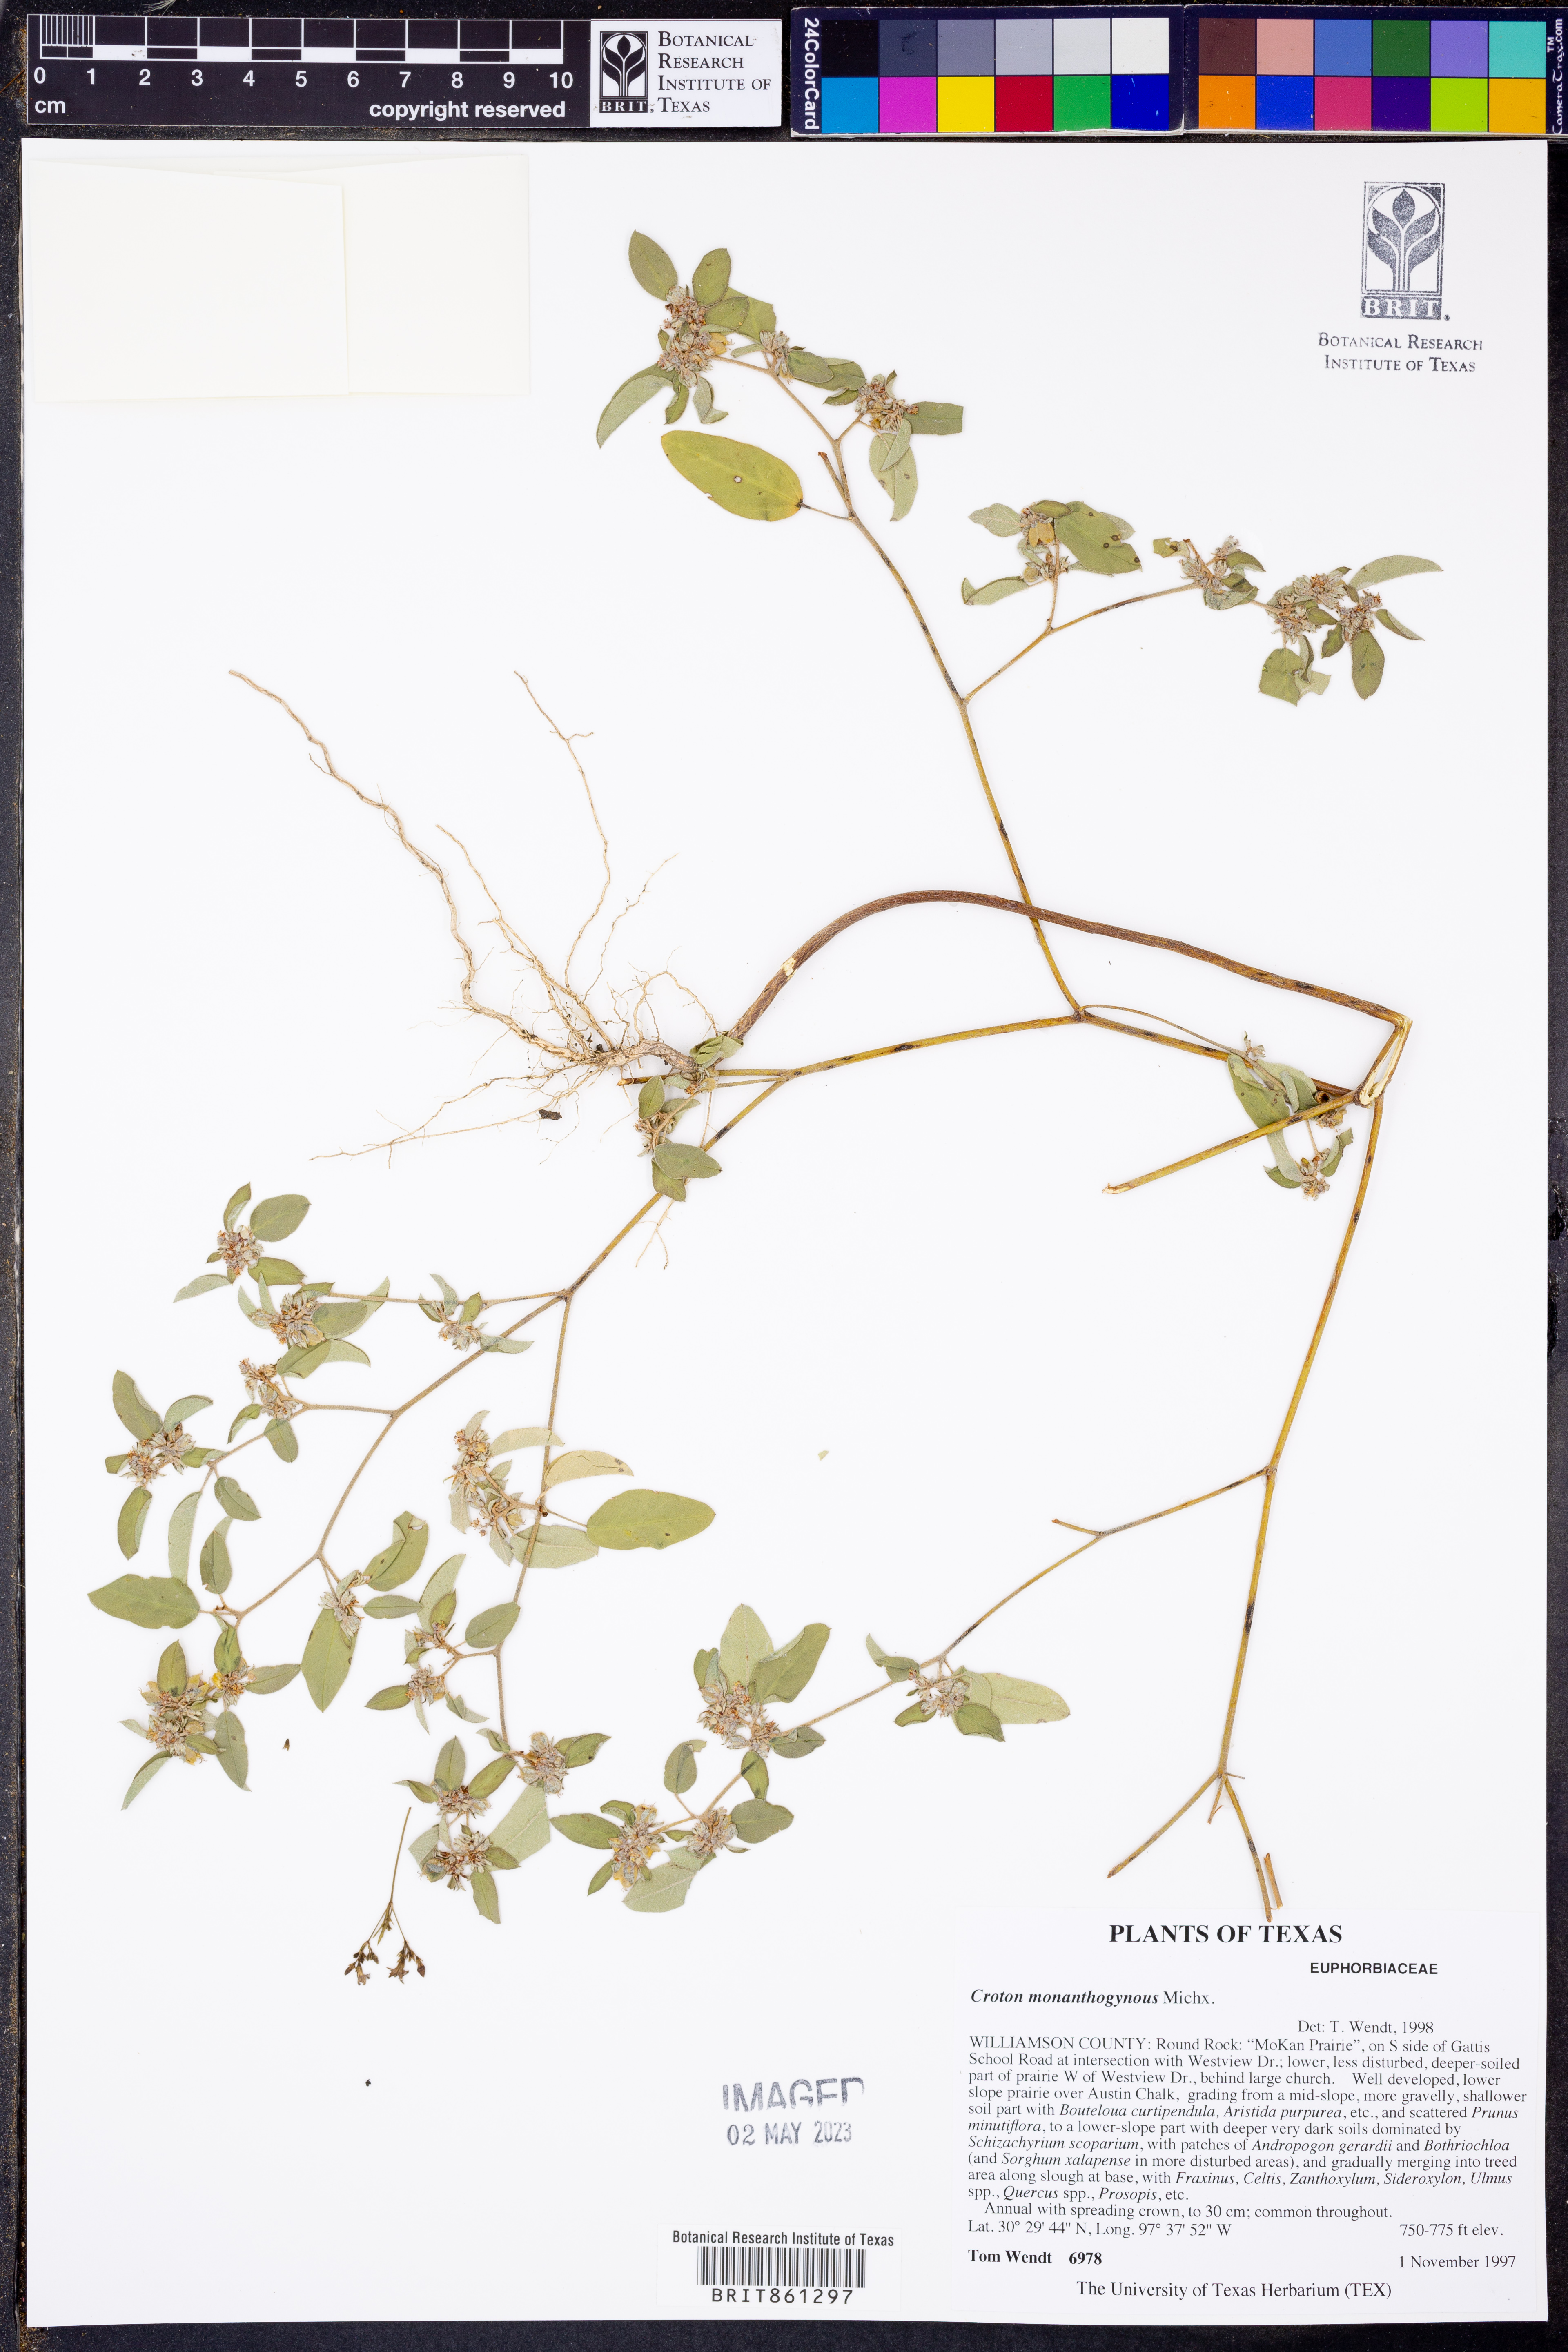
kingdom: Plantae
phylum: Tracheophyta
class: Magnoliopsida
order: Malpighiales
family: Euphorbiaceae
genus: Croton
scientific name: Croton monanthogynus
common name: One-seed croton
